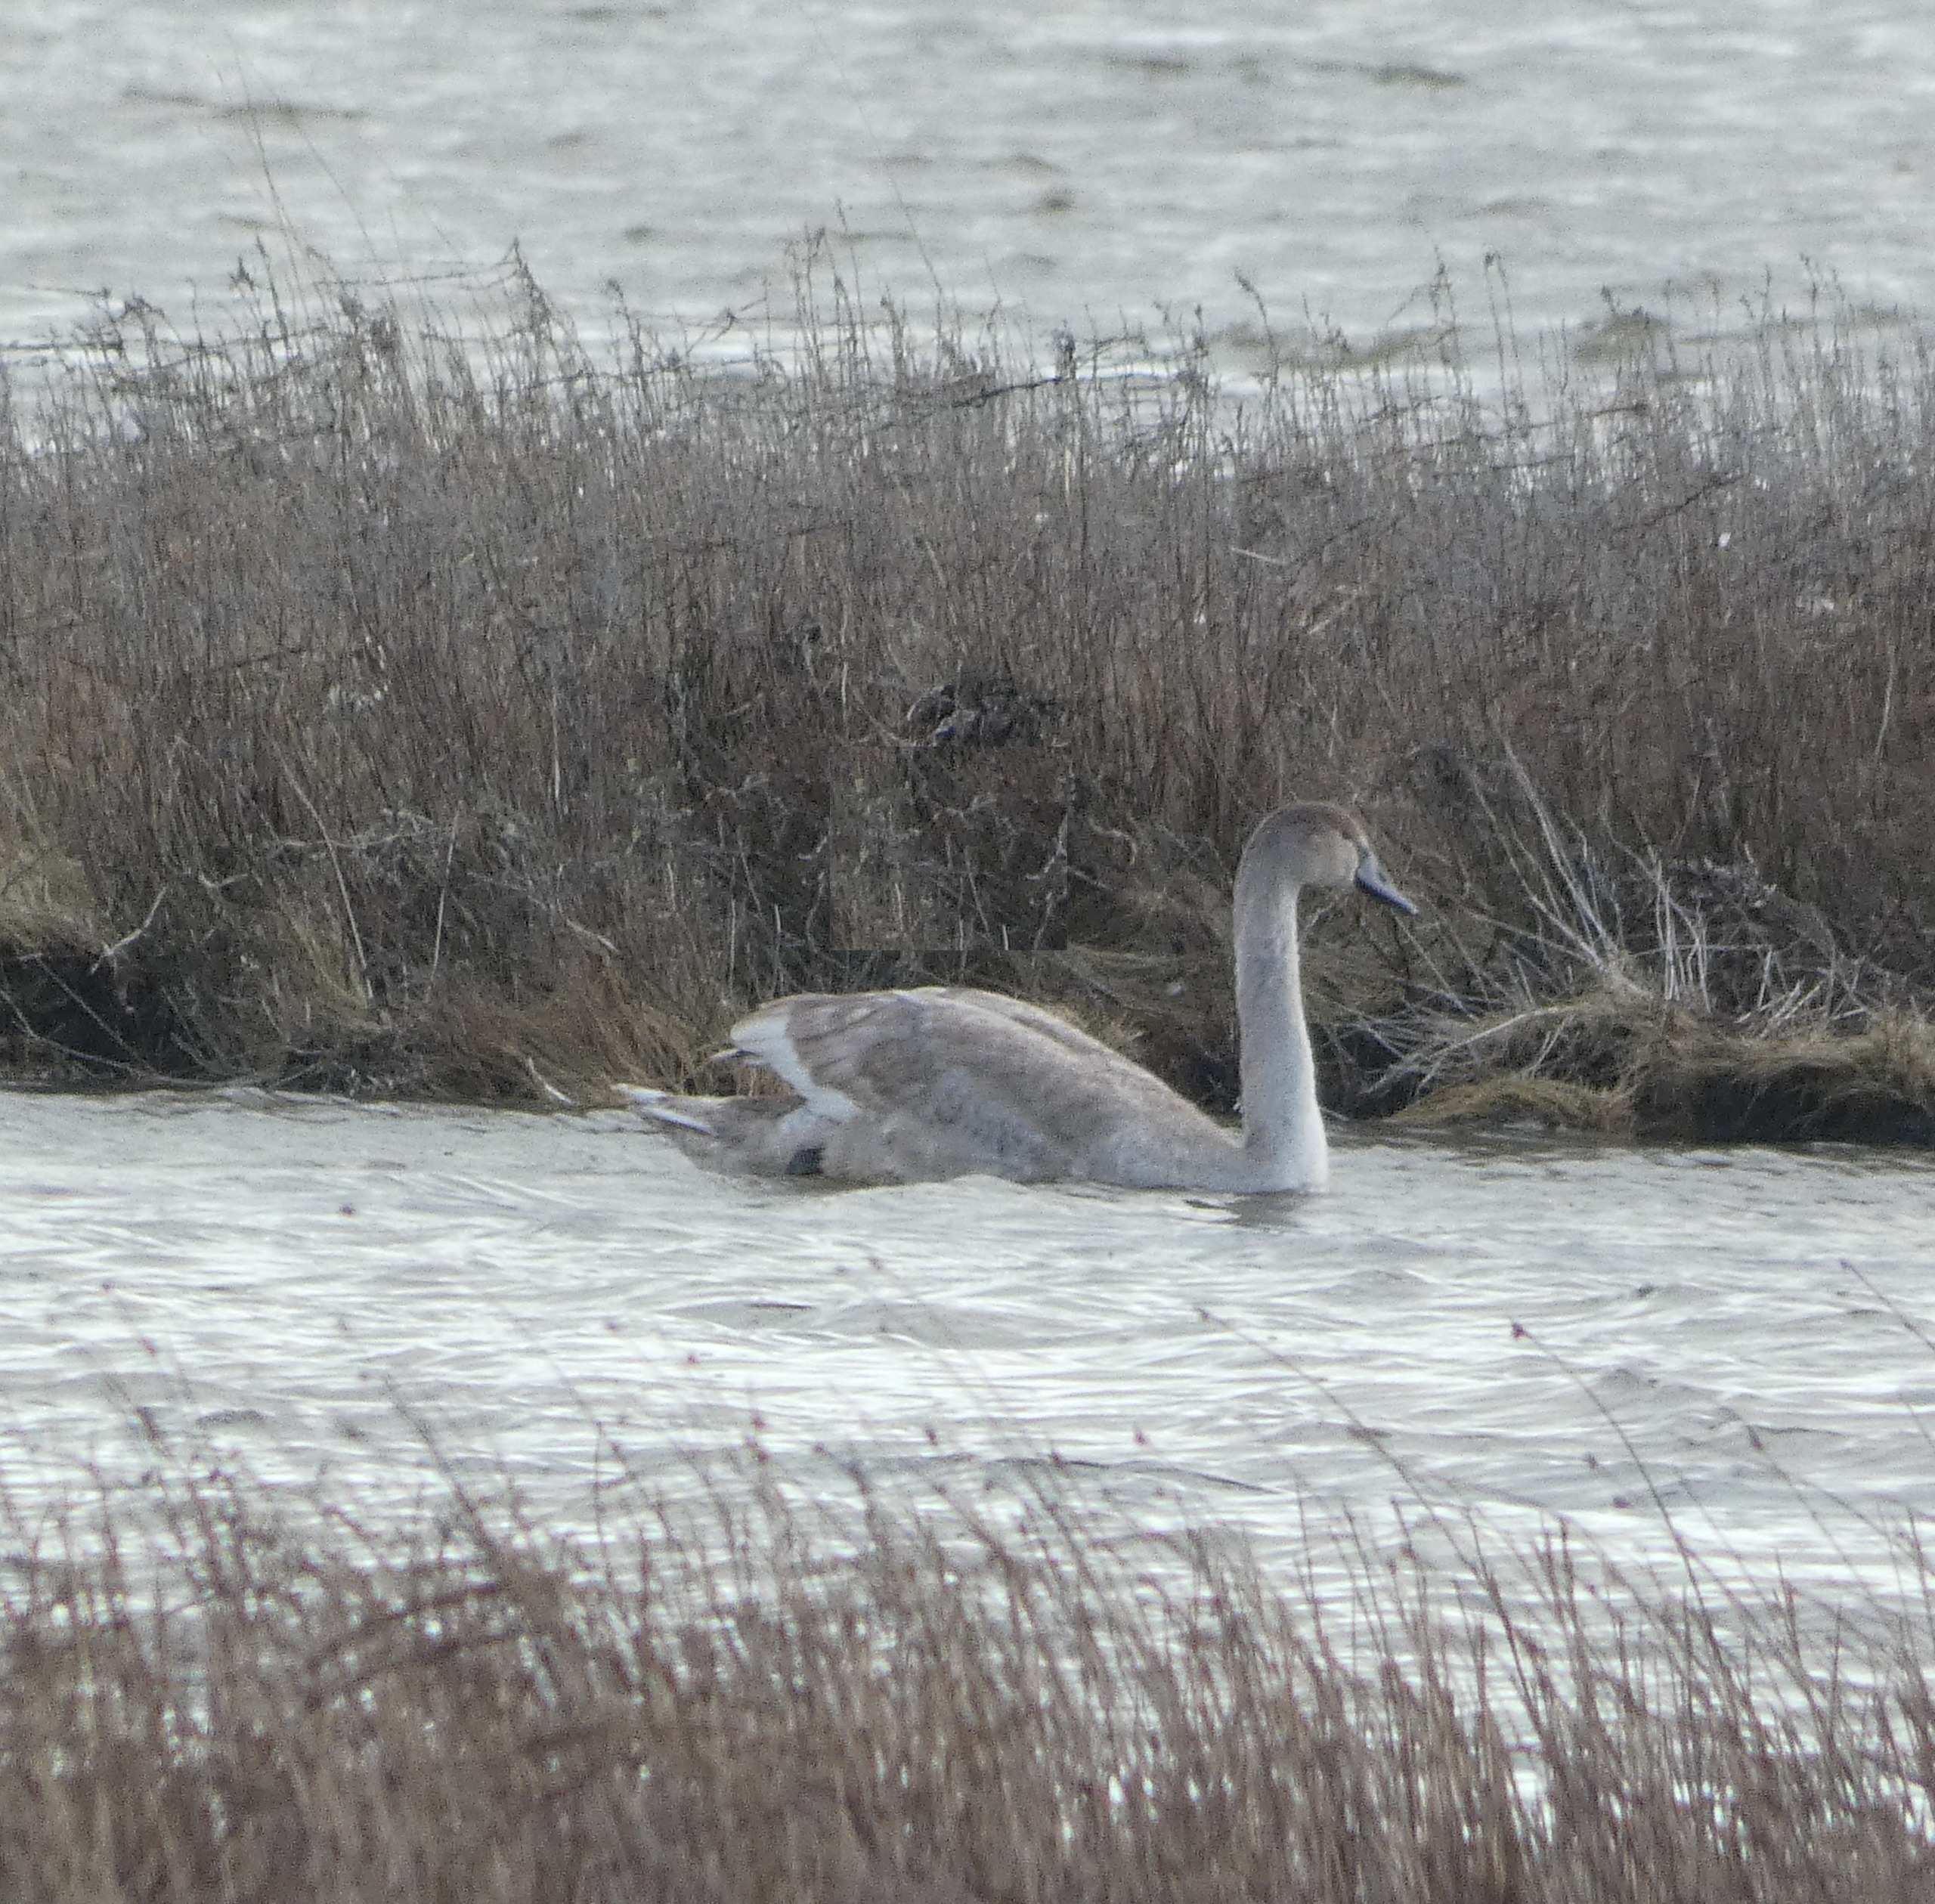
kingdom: Animalia
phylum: Chordata
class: Aves
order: Anseriformes
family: Anatidae
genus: Cygnus
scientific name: Cygnus olor
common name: Knopsvane
